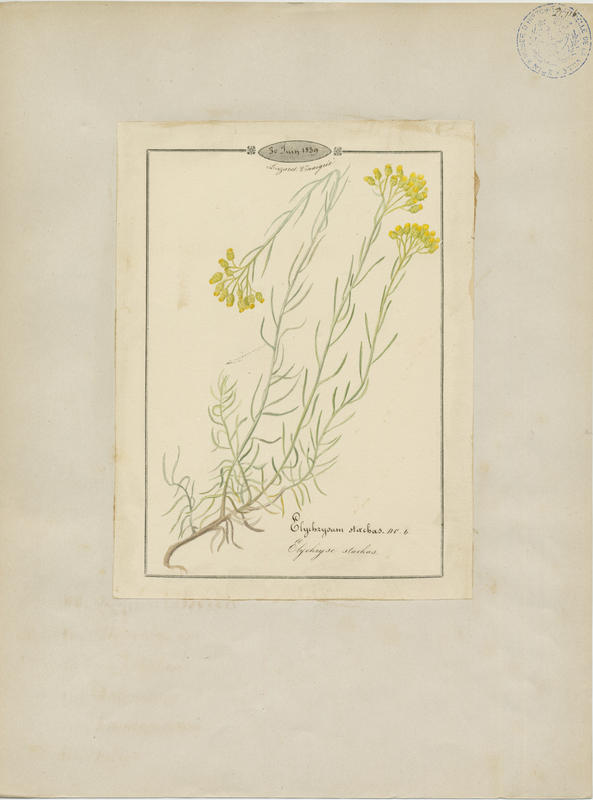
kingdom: Plantae
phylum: Tracheophyta
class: Magnoliopsida
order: Asterales
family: Asteraceae
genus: Helichrysum
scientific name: Helichrysum stoechas
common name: Goldilocks
